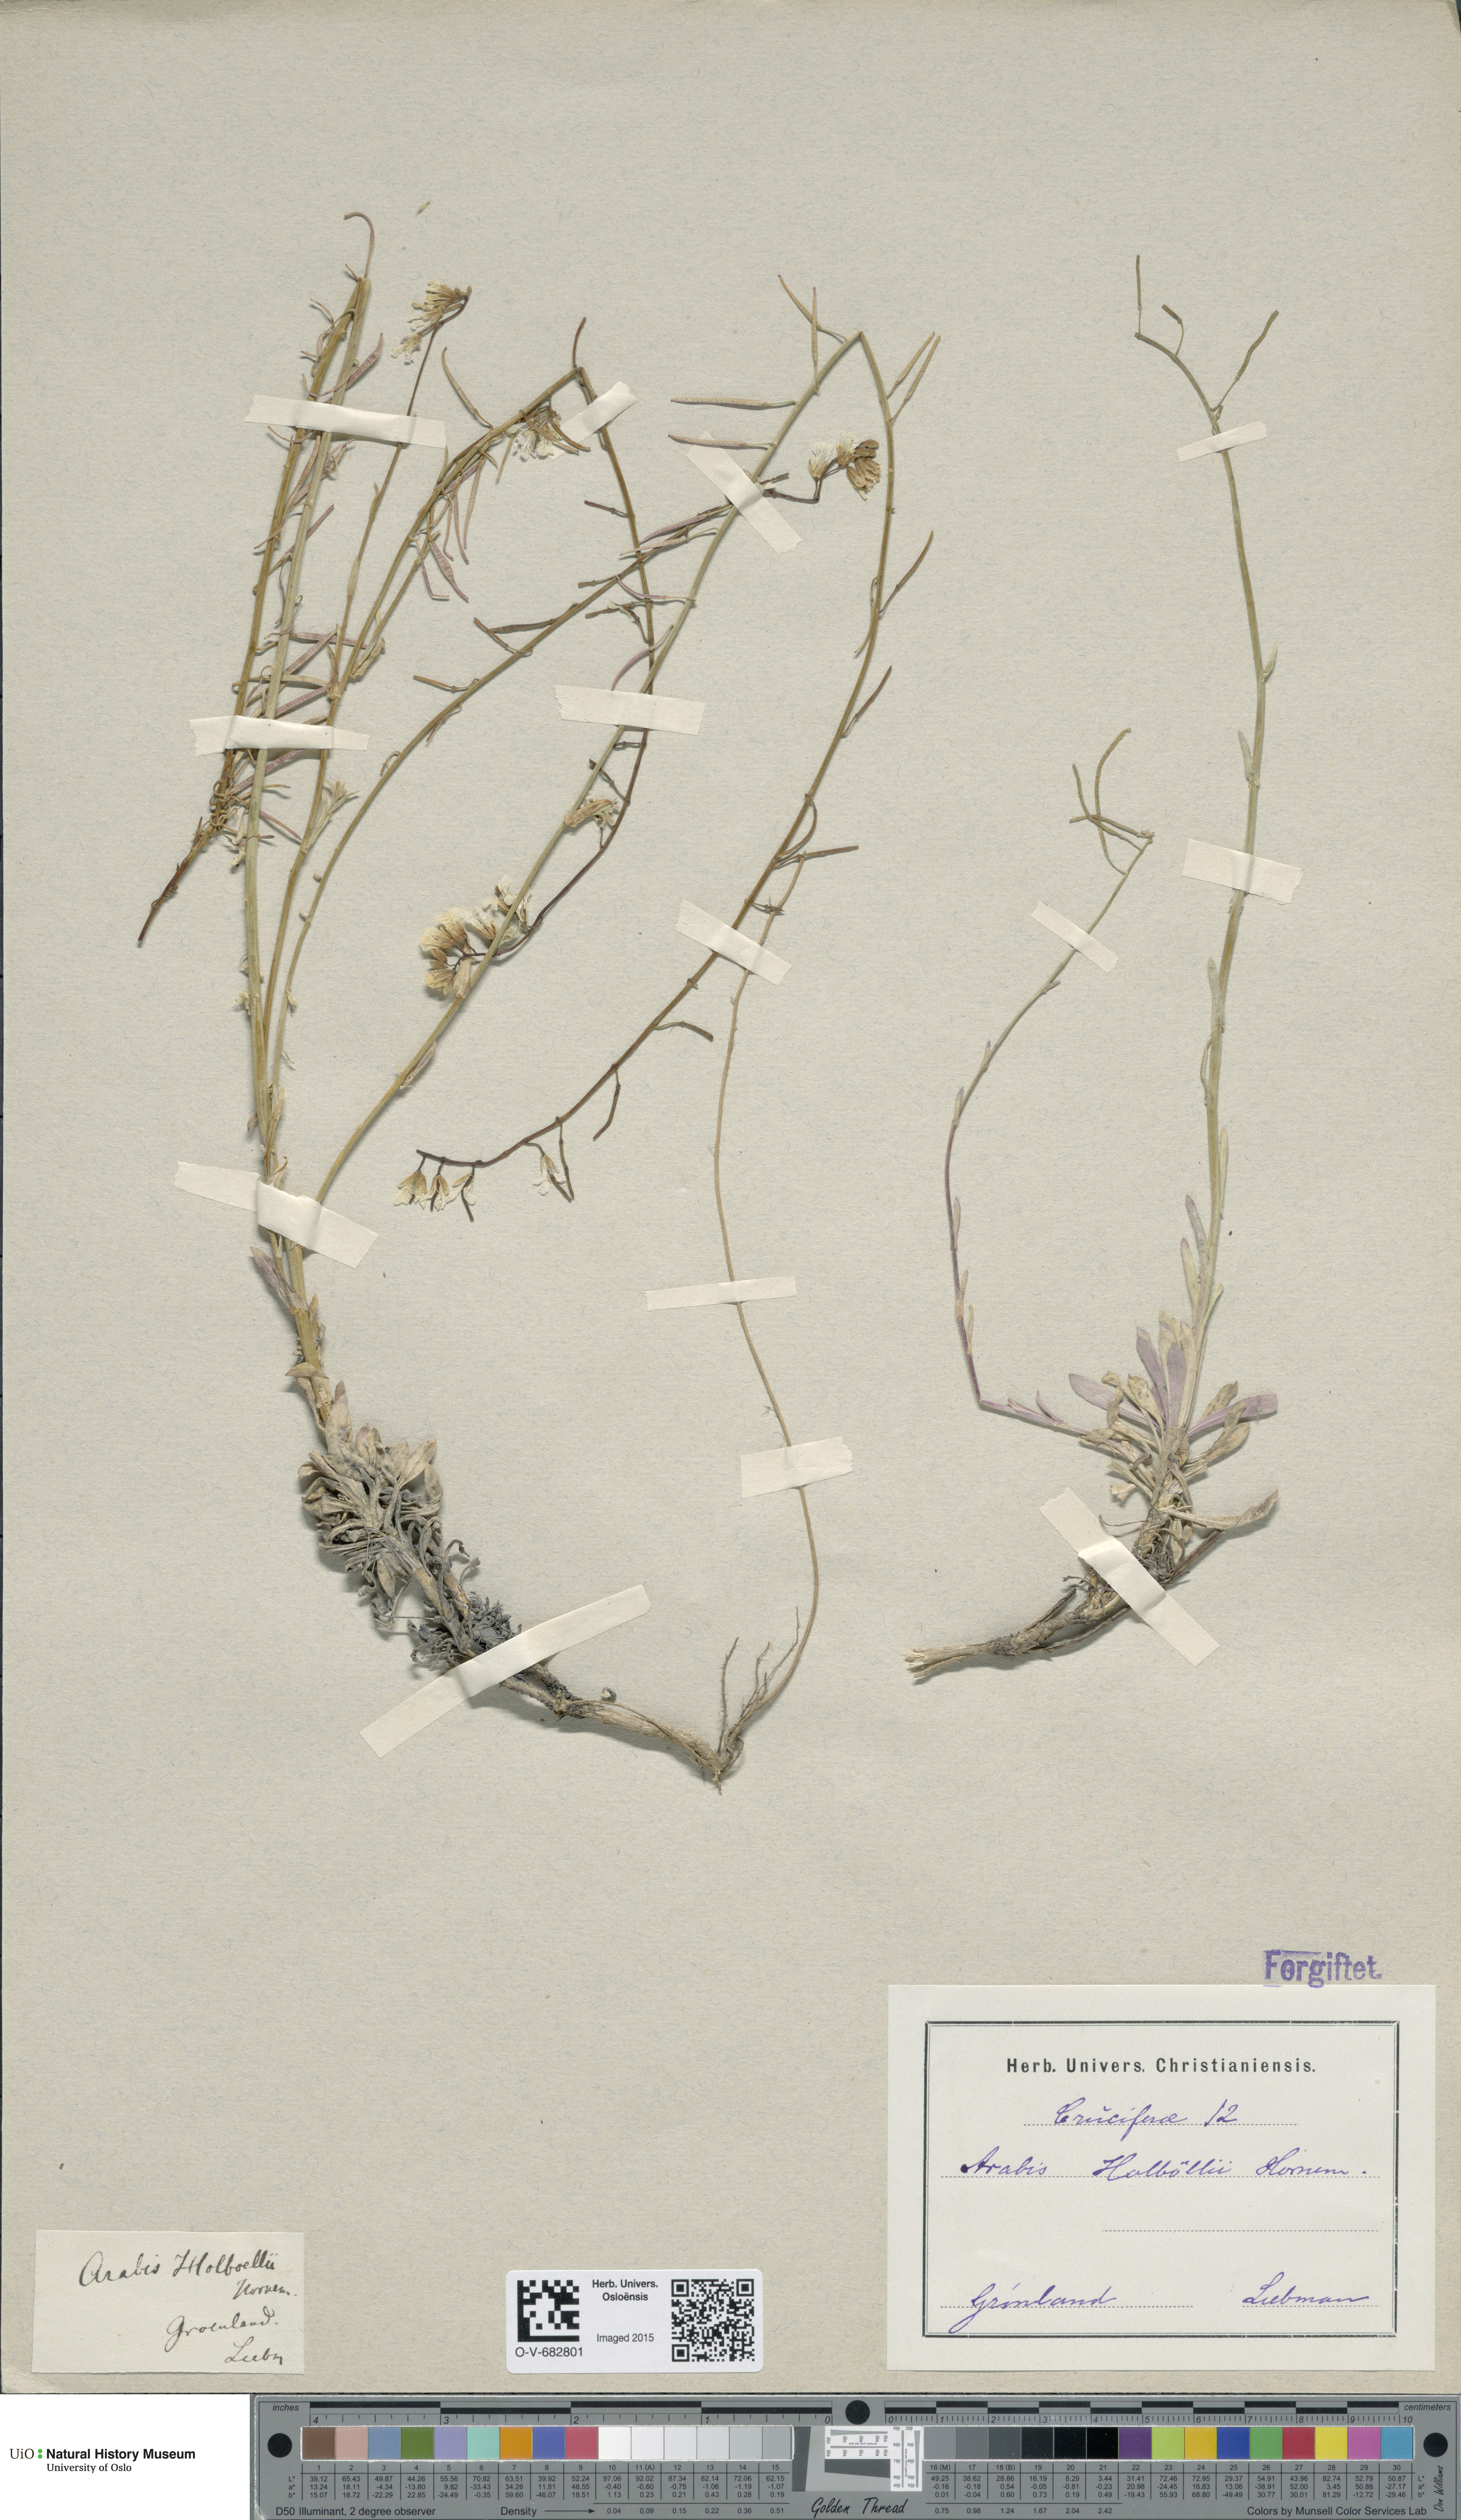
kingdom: Plantae
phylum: Tracheophyta
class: Magnoliopsida
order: Brassicales
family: Brassicaceae
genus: Boechera
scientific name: Boechera holboellii
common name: Holboell's rockcress
